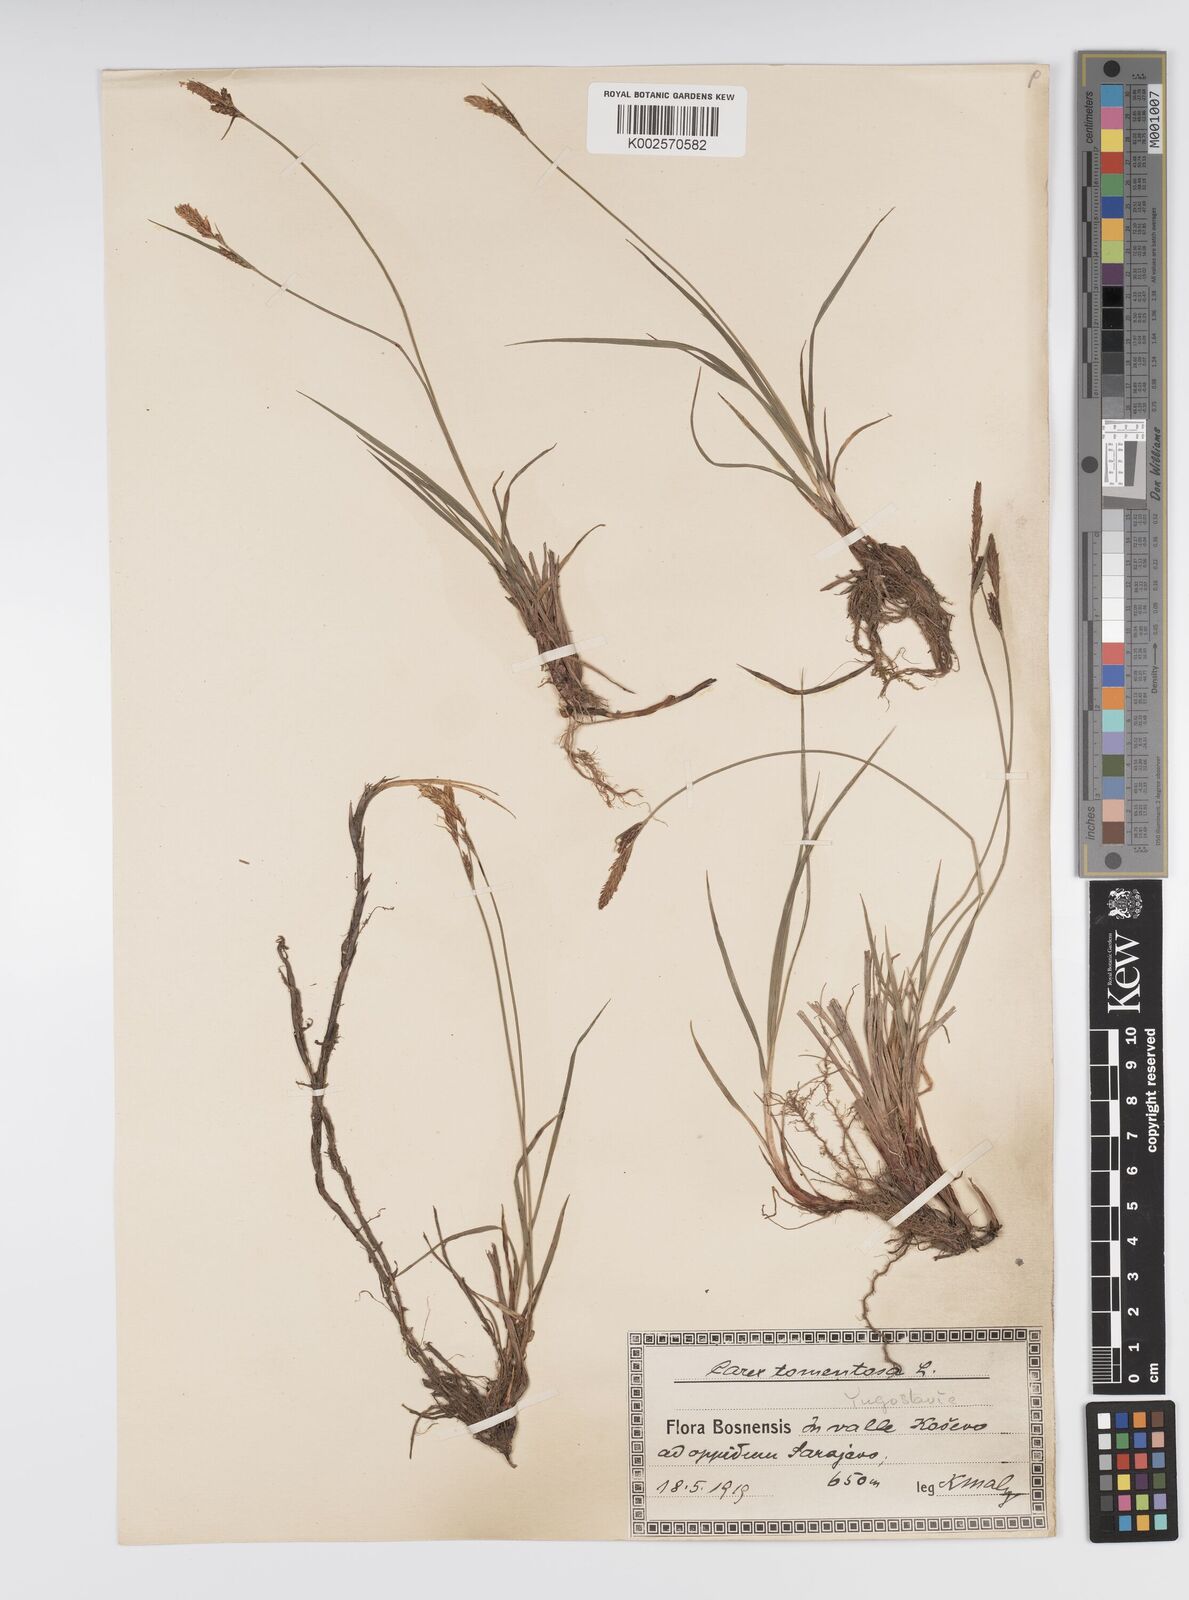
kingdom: Plantae
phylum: Tracheophyta
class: Liliopsida
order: Poales
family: Cyperaceae
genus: Carex
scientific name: Carex montana
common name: Soft-leaved sedge
